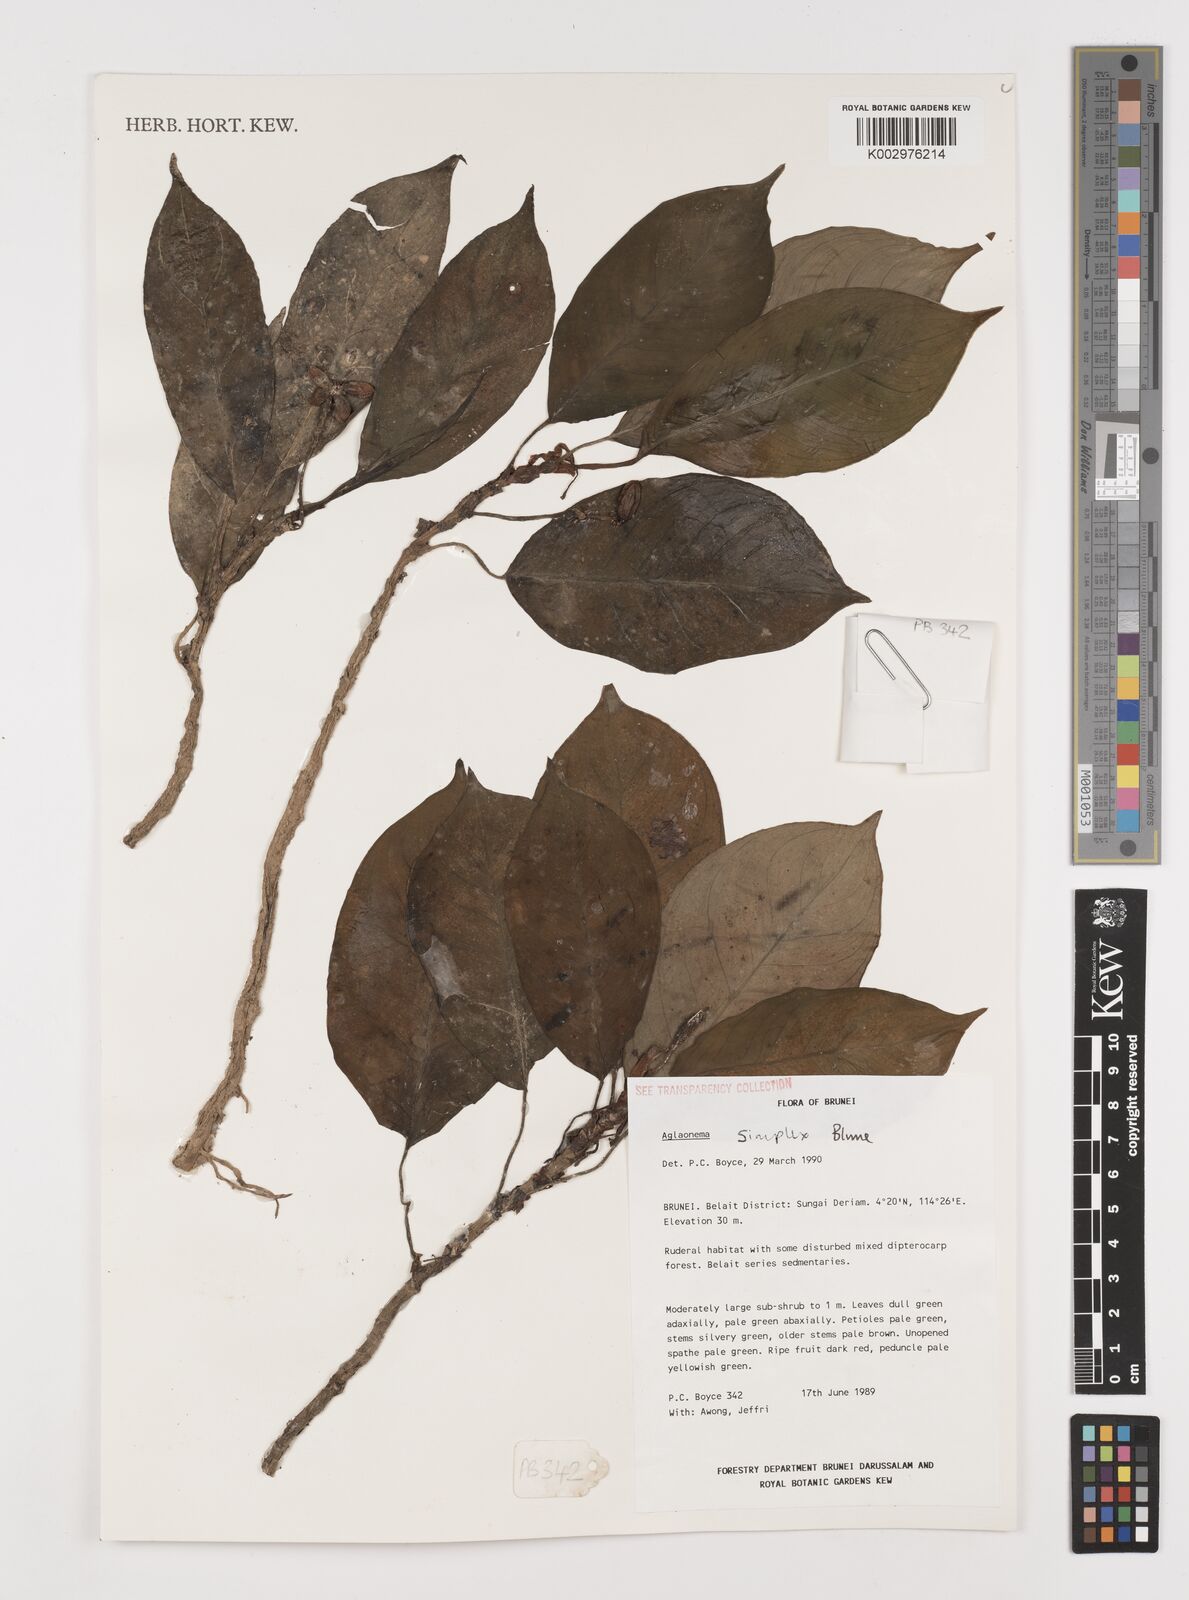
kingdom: Plantae
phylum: Tracheophyta
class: Liliopsida
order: Alismatales
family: Araceae
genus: Aglaonema
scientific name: Aglaonema simplex
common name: Malayan-sword
